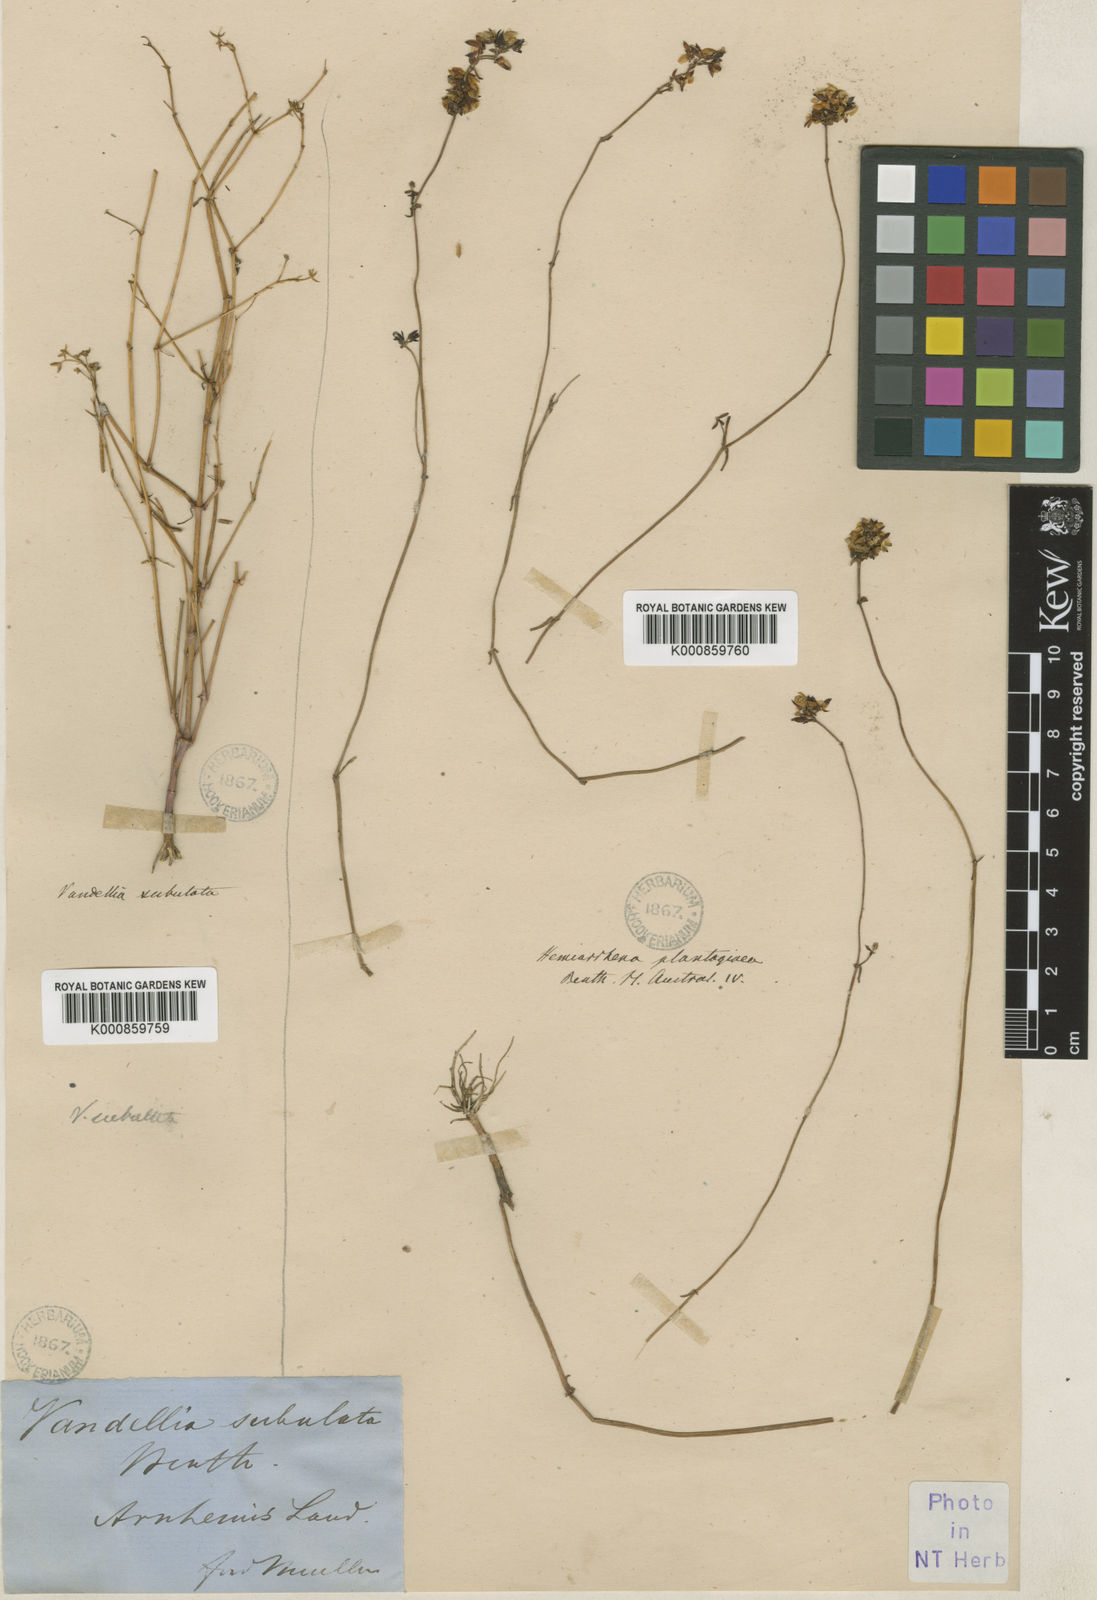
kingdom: Plantae
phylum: Tracheophyta
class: Magnoliopsida
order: Lamiales
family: Linderniaceae
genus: Hemiarrhena
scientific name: Hemiarrhena
